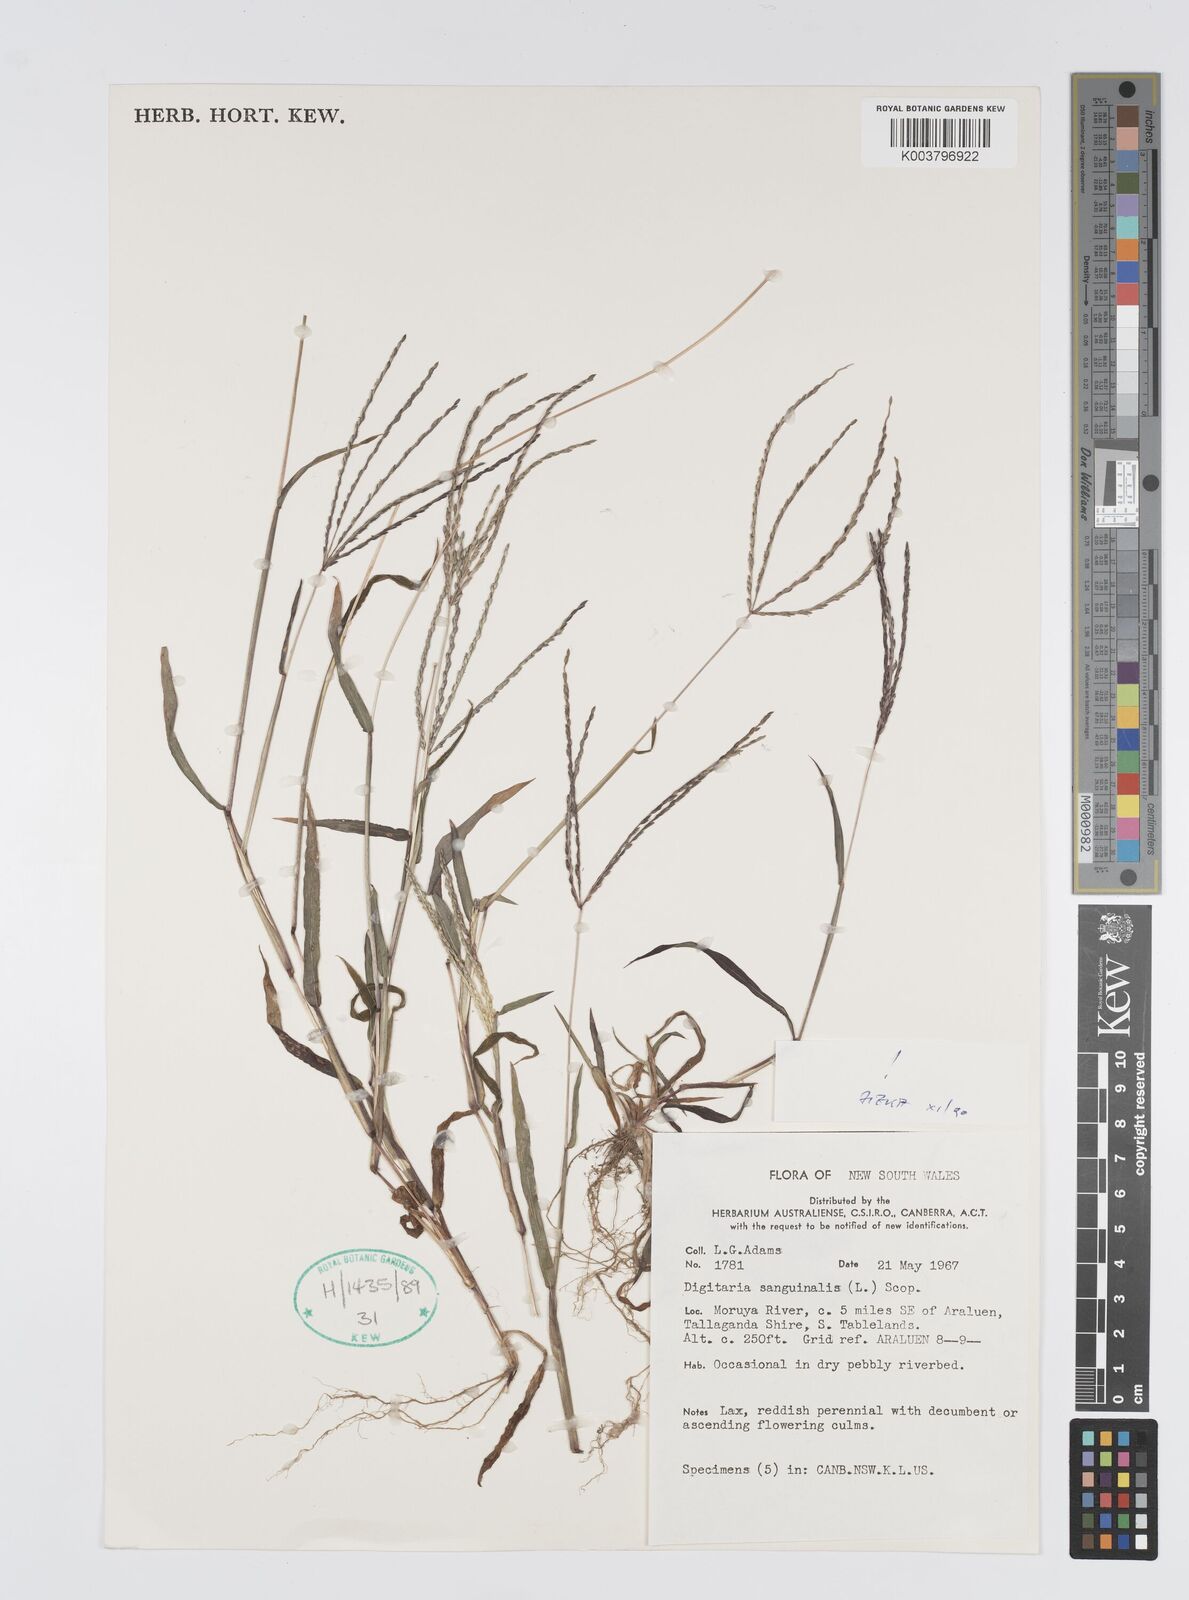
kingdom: Plantae
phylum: Tracheophyta
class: Liliopsida
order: Poales
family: Poaceae
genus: Digitaria
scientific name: Digitaria sanguinalis
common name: Hairy crabgrass
